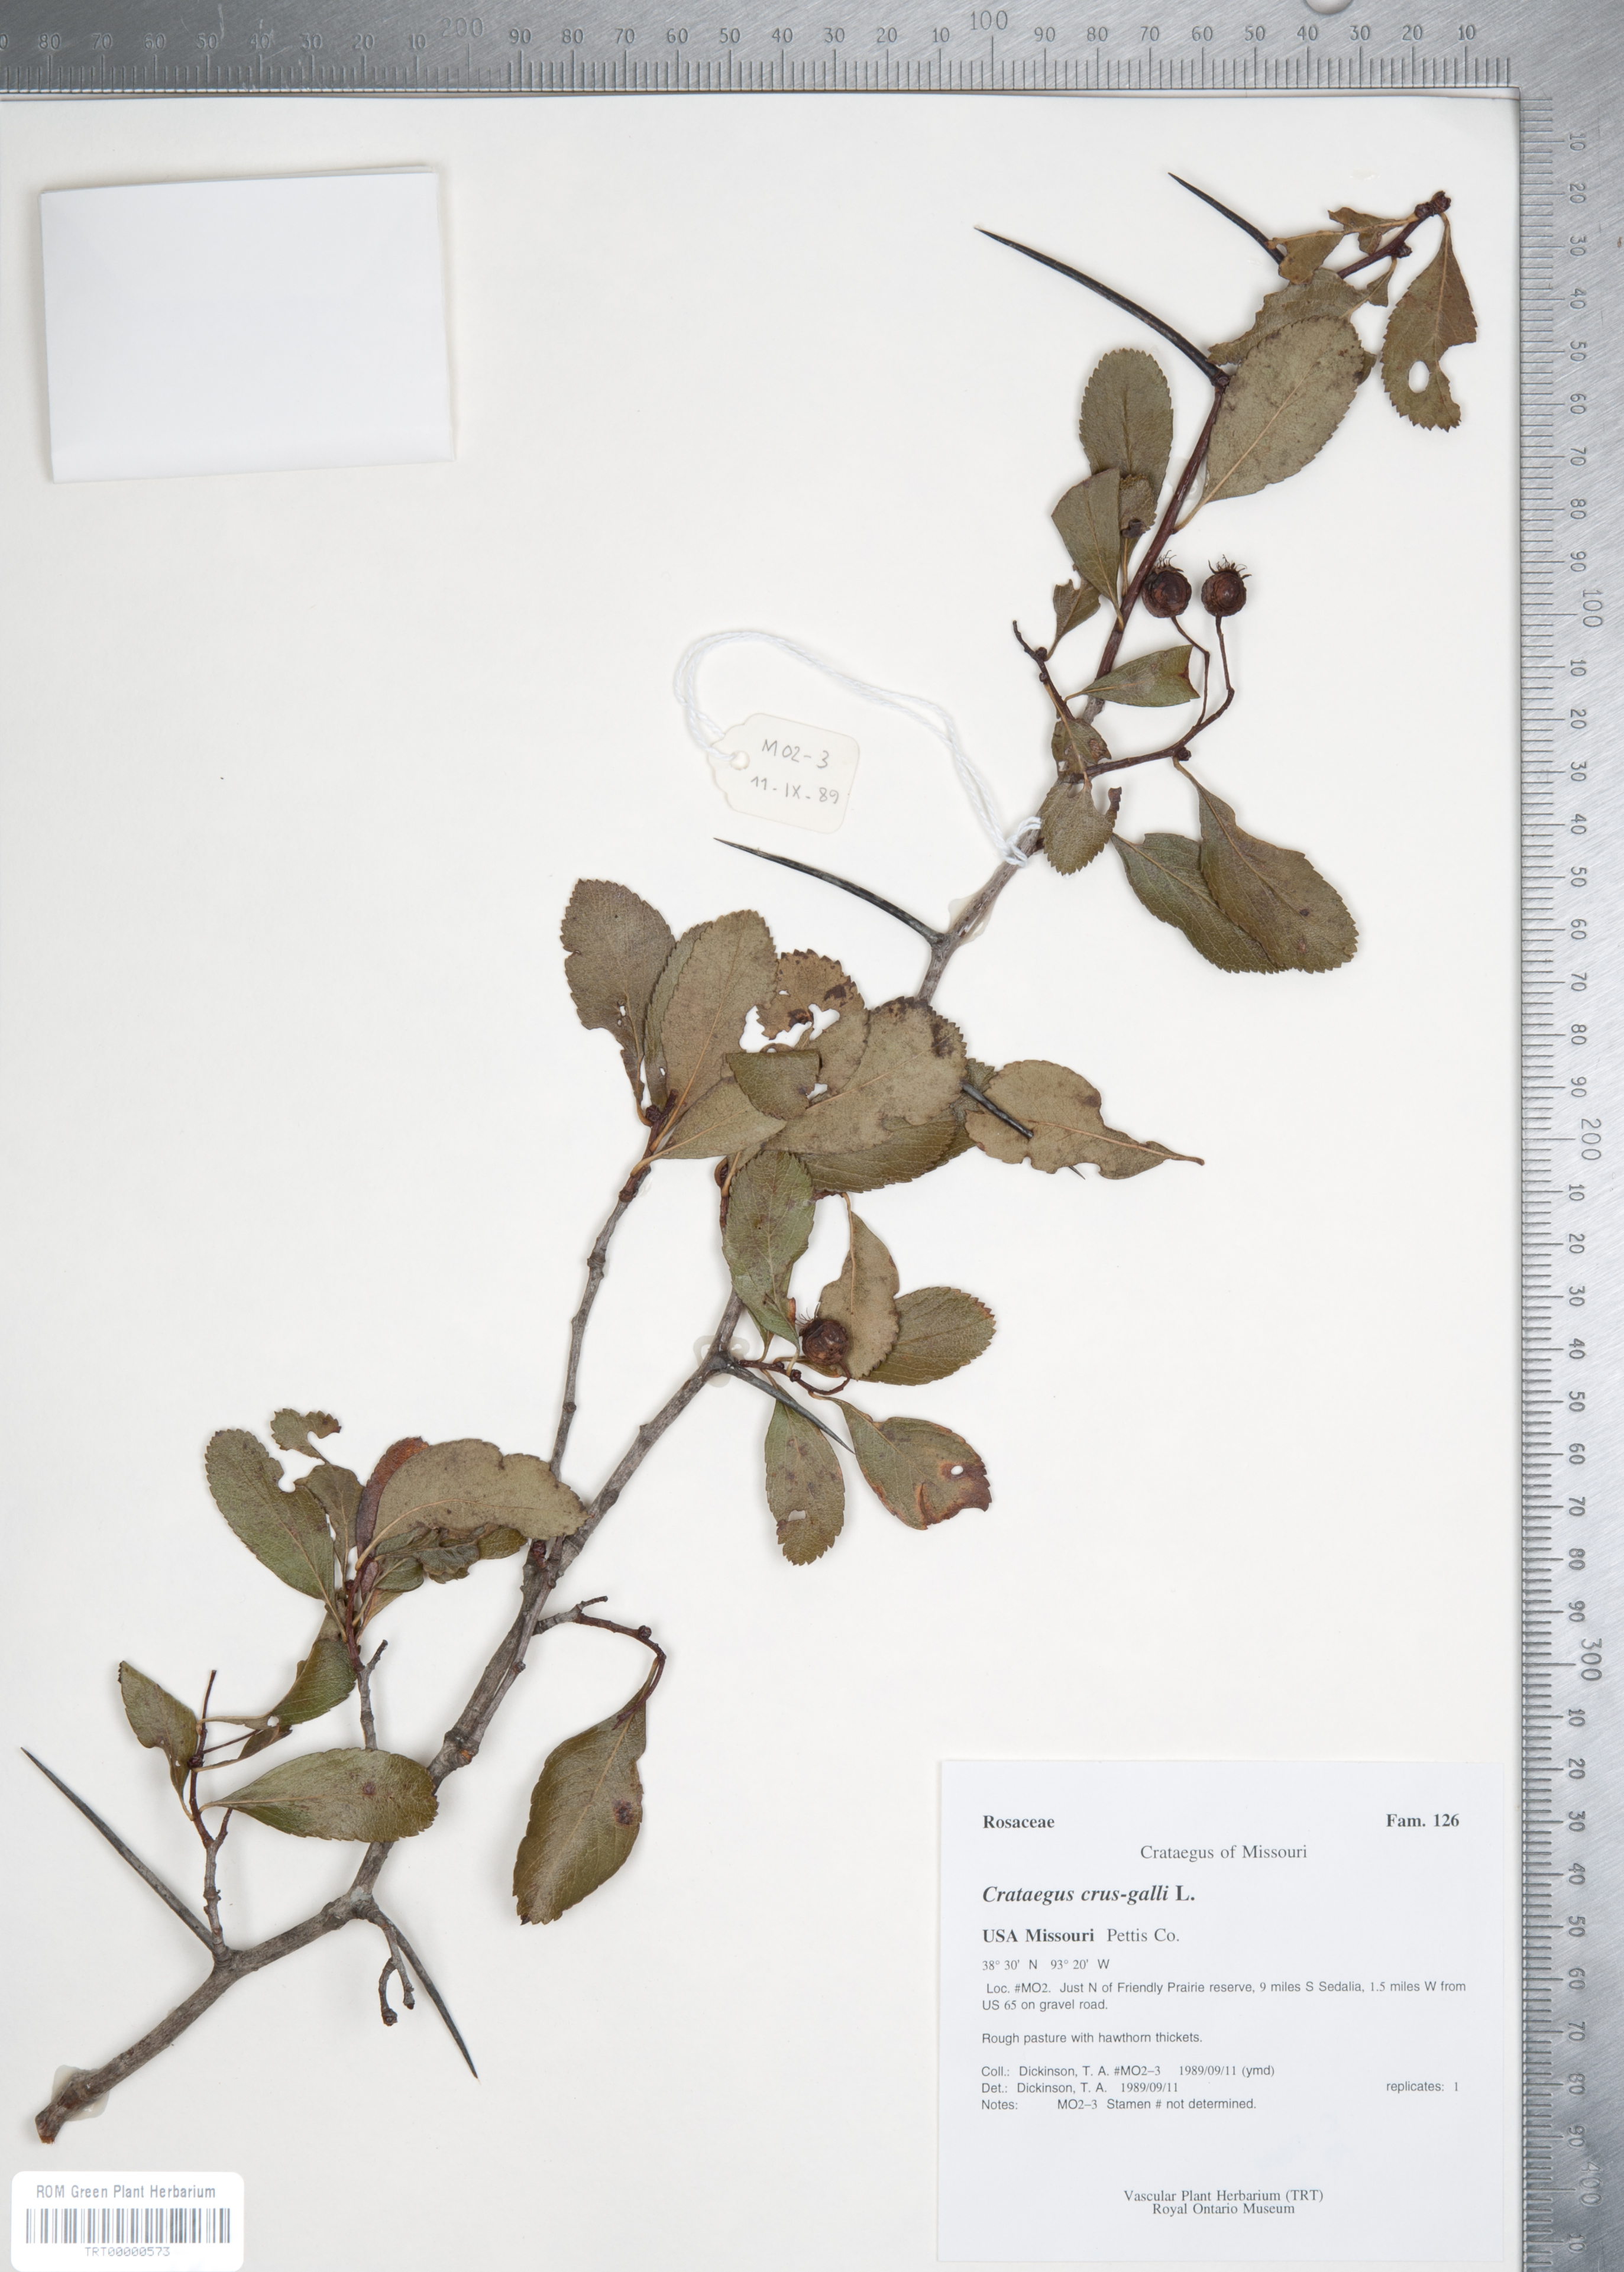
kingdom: Plantae
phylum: Tracheophyta
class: Magnoliopsida
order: Rosales
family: Rosaceae
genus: Crataegus
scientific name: Crataegus crus-galli
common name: Cockspurthorn
